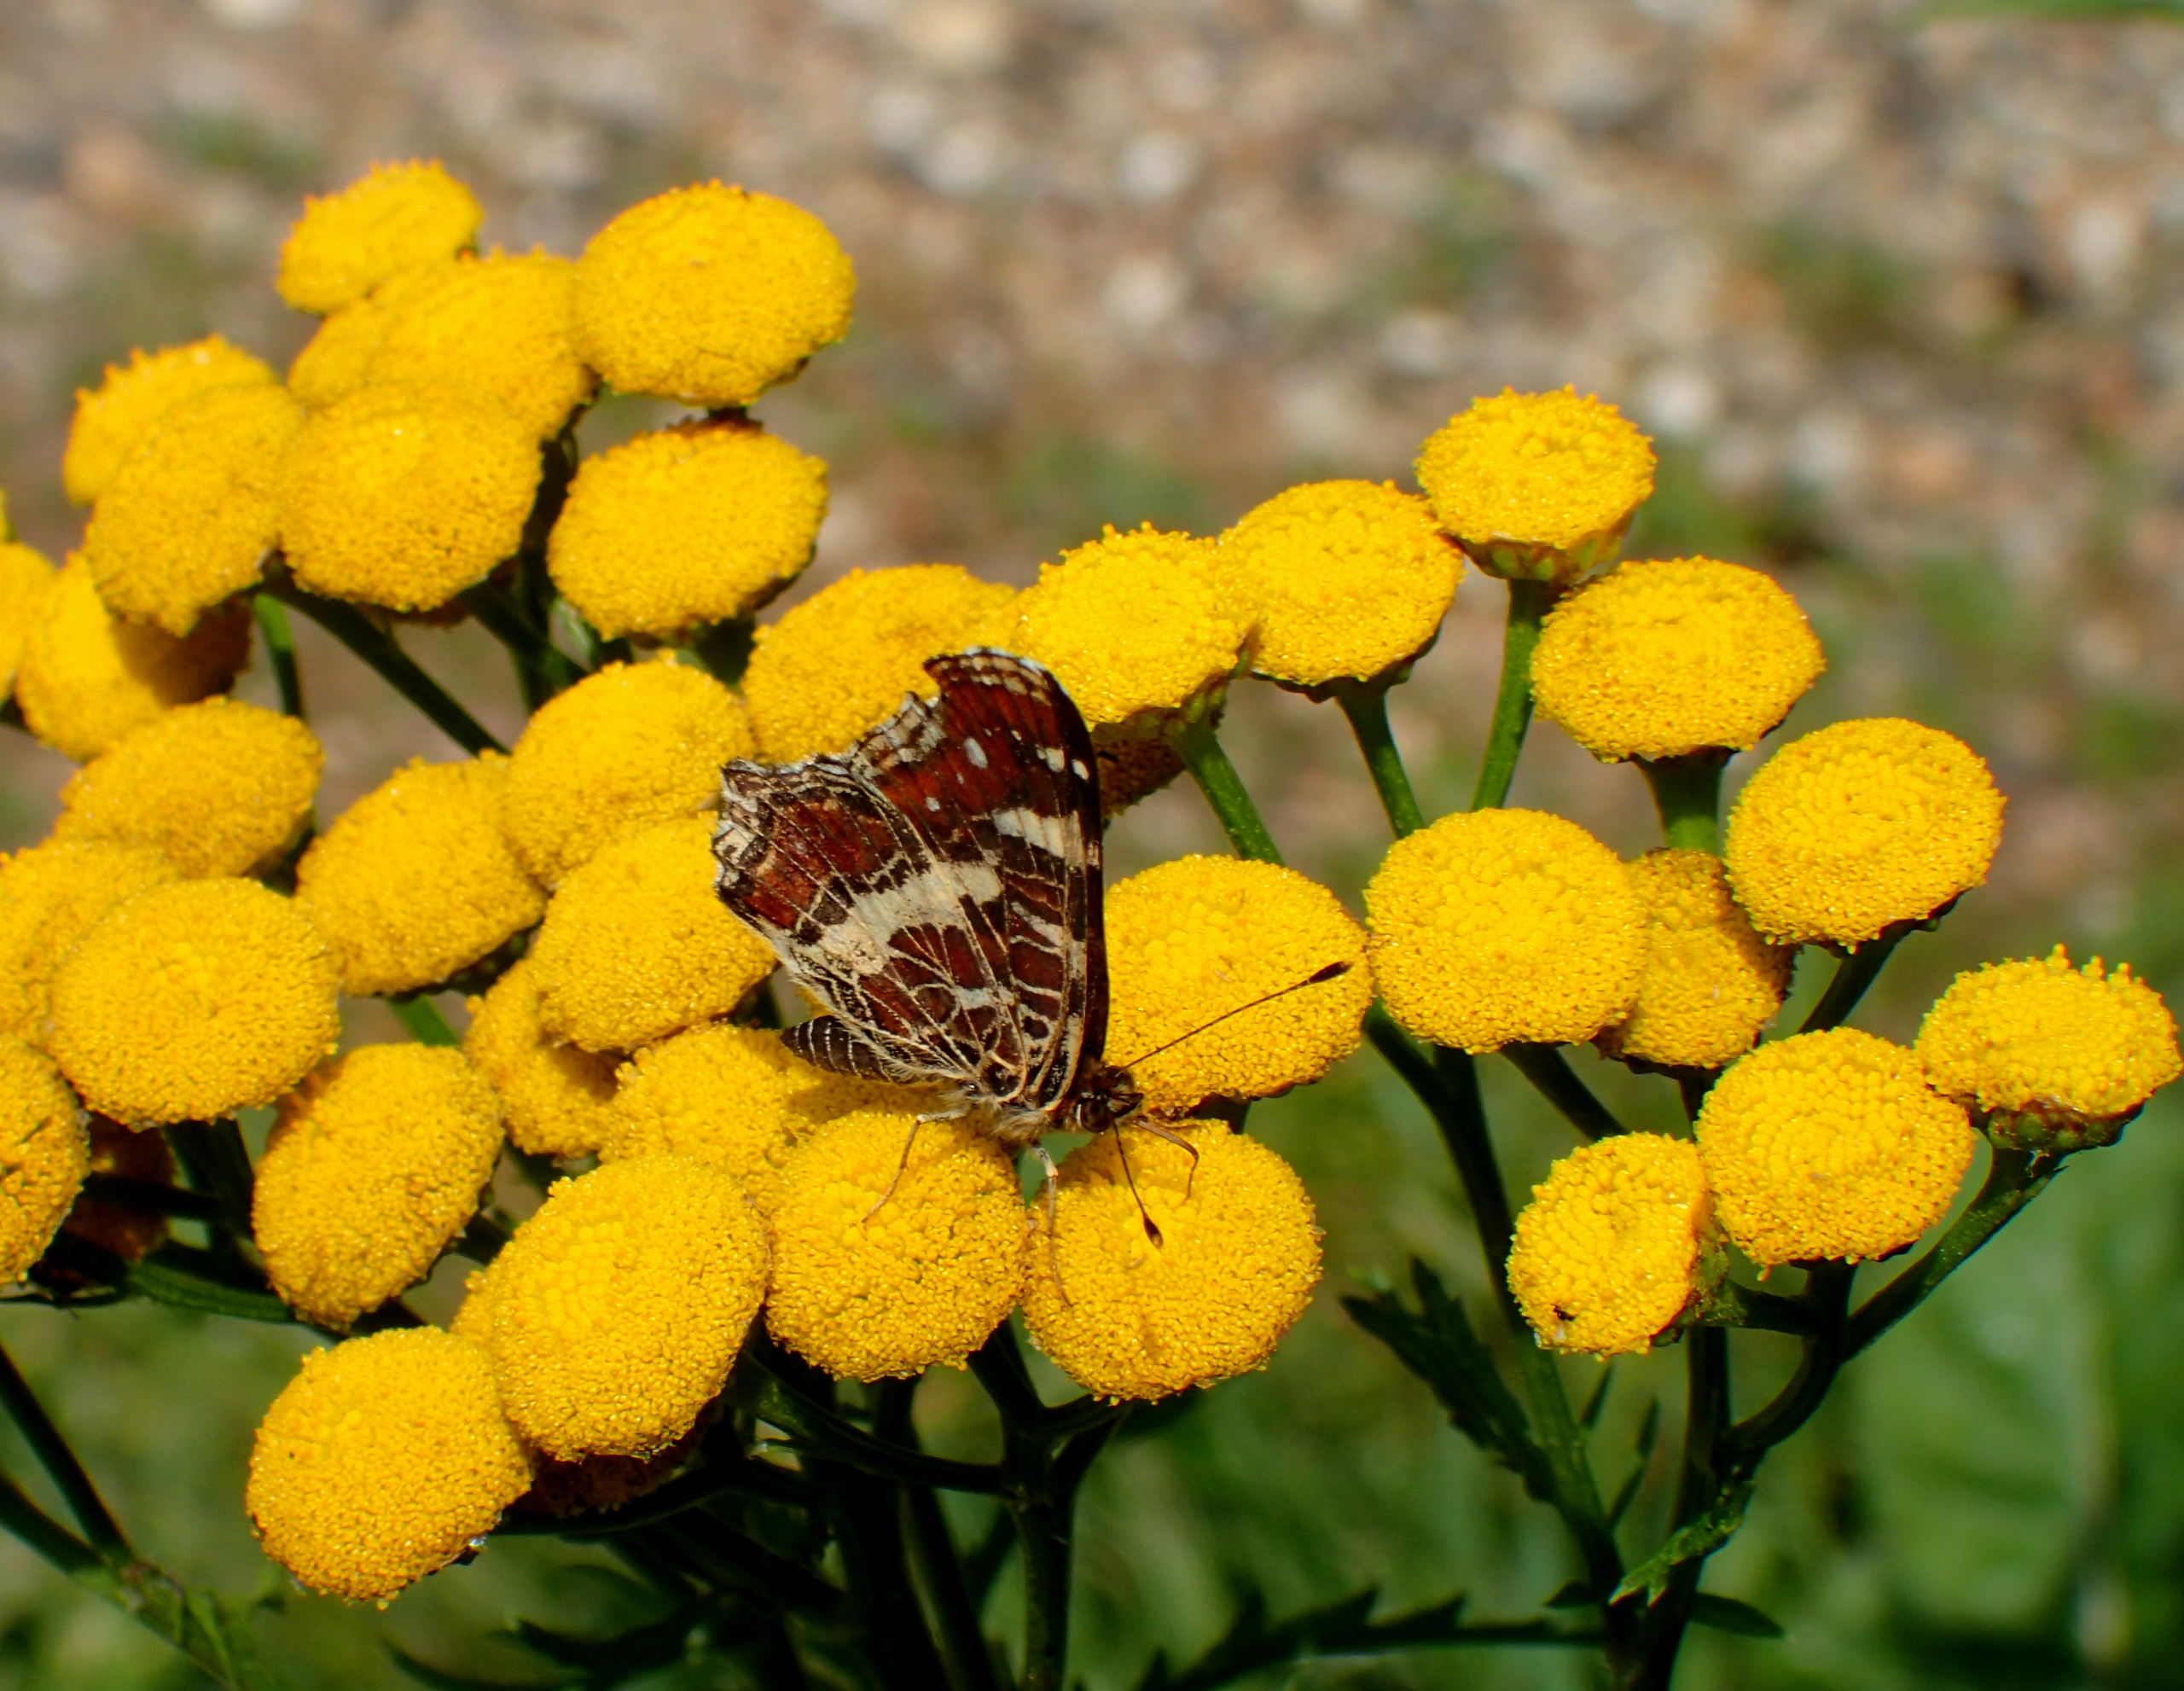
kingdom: Animalia
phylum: Arthropoda
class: Insecta
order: Lepidoptera
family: Nymphalidae
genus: Araschnia
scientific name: Araschnia levana
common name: Nældesommerfugl
